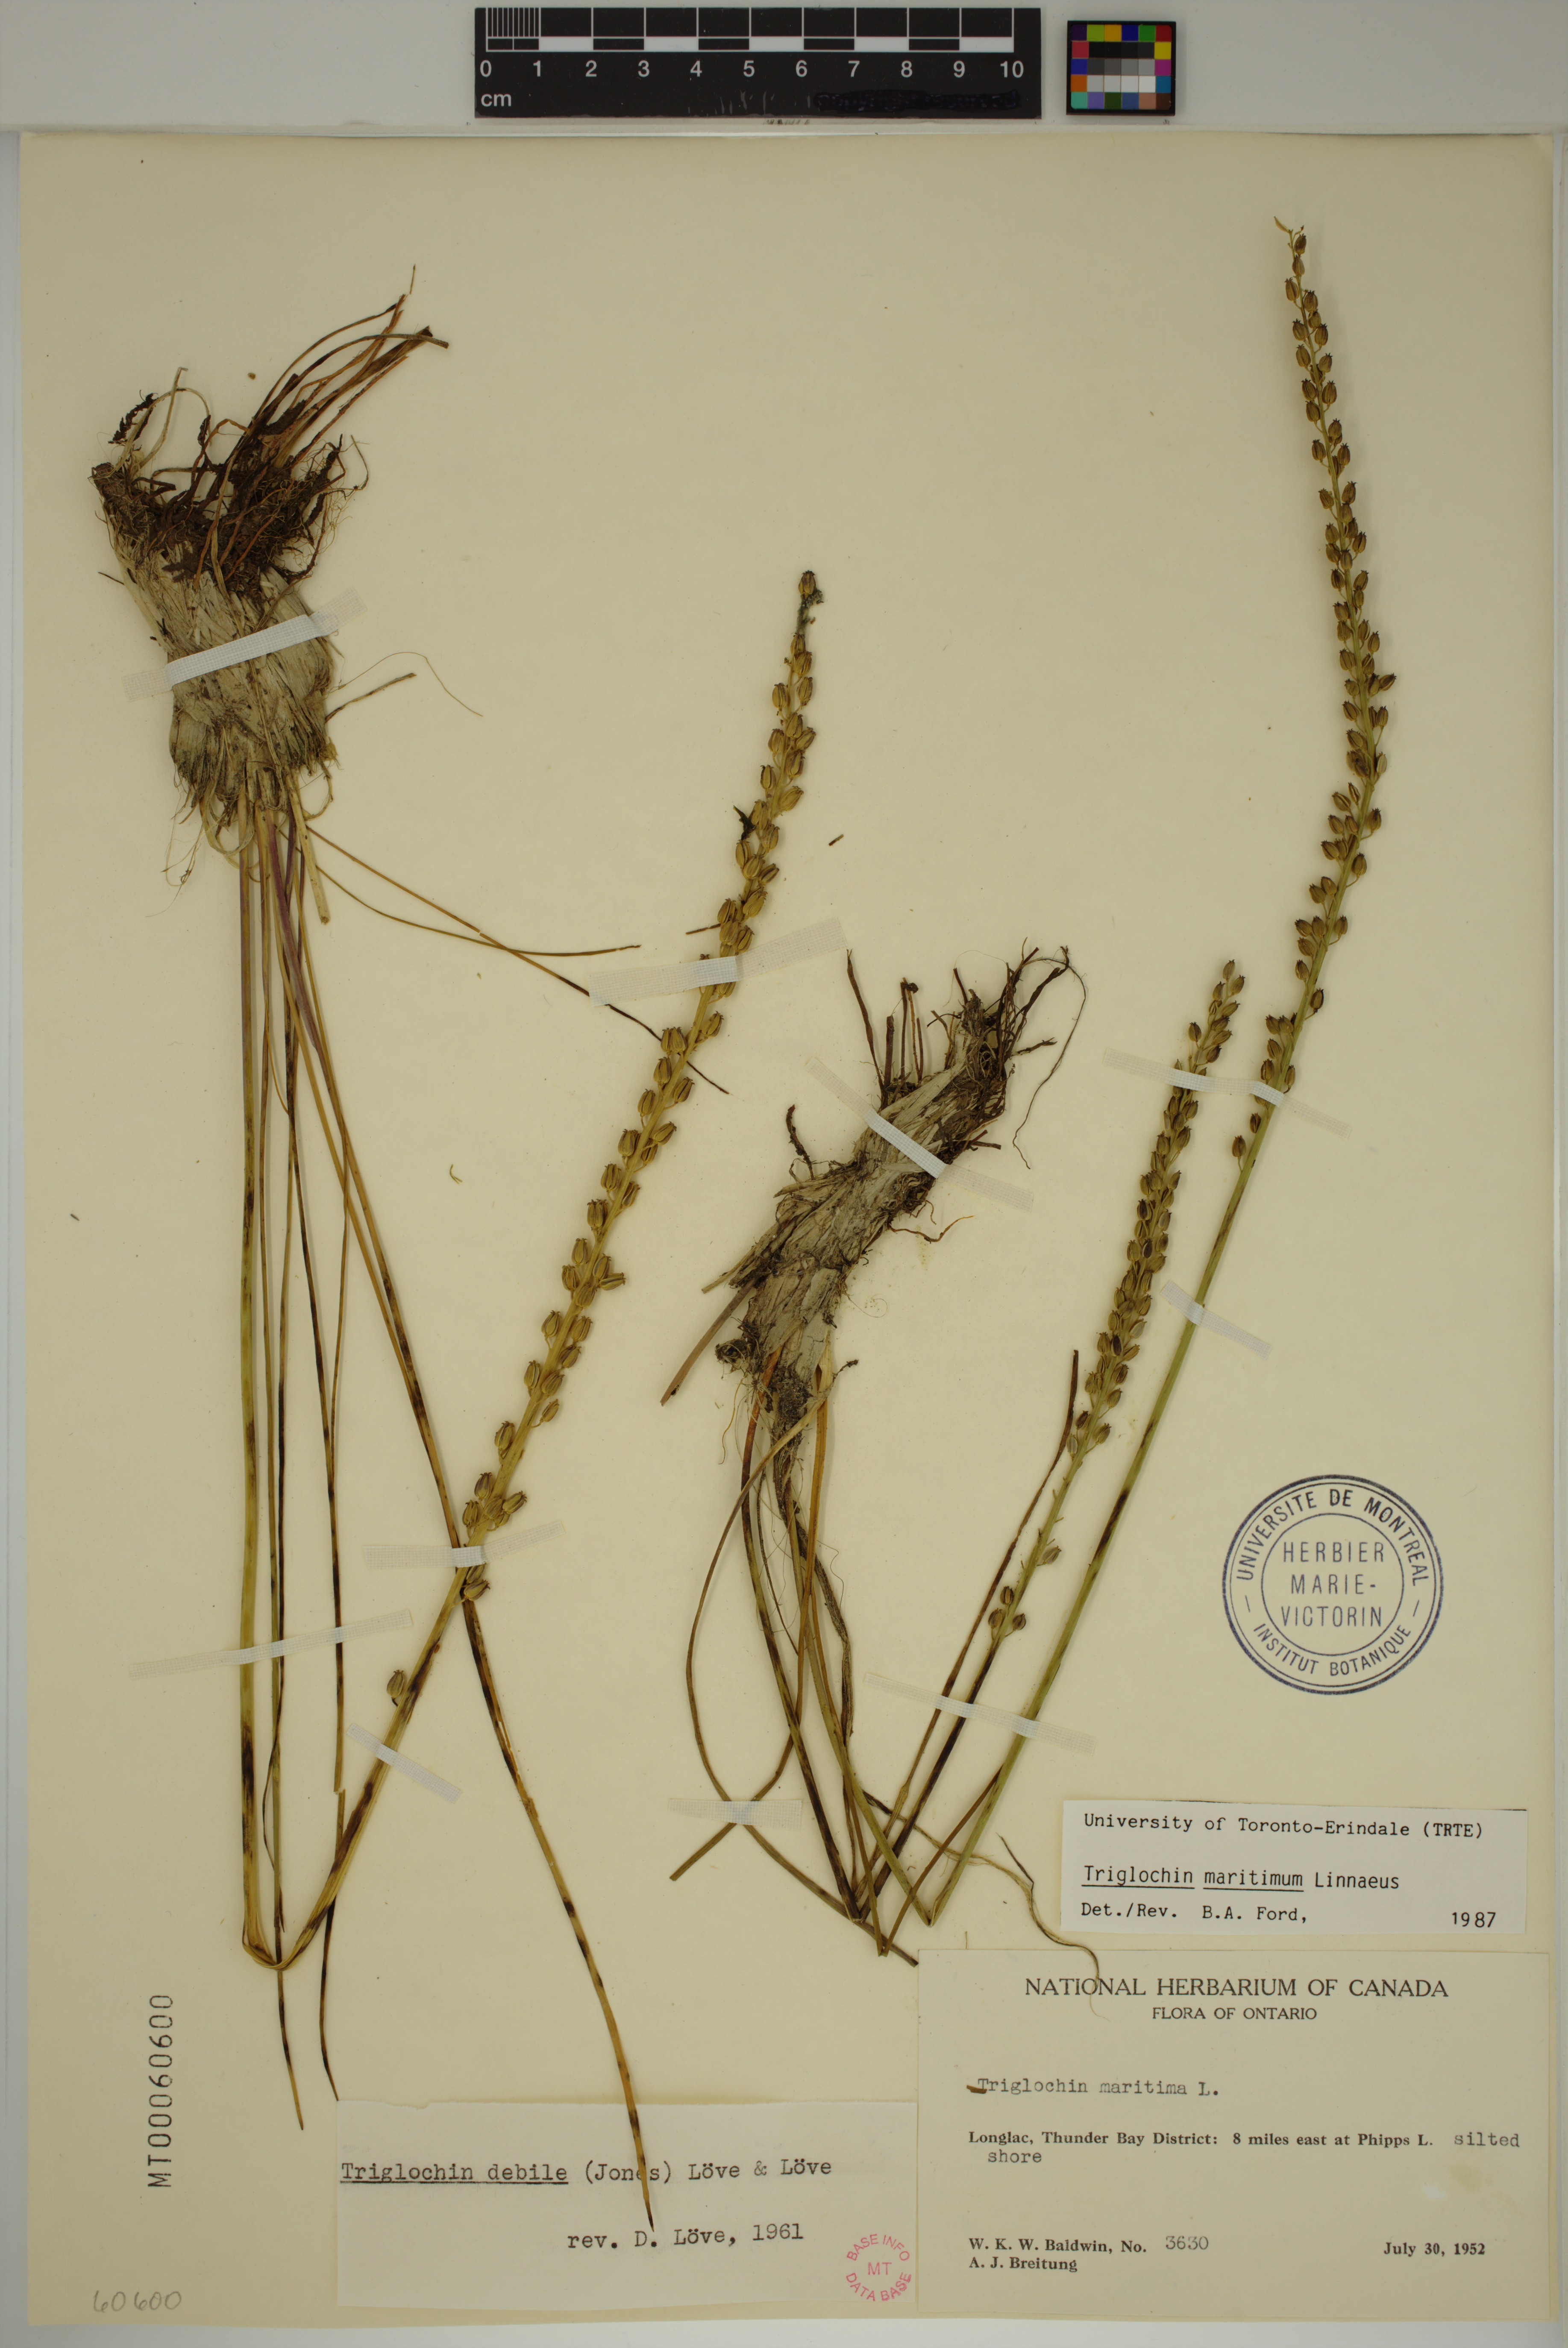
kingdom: Plantae
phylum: Tracheophyta
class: Liliopsida
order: Alismatales
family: Juncaginaceae
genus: Triglochin
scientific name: Triglochin maritima
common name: Sea arrowgrass
